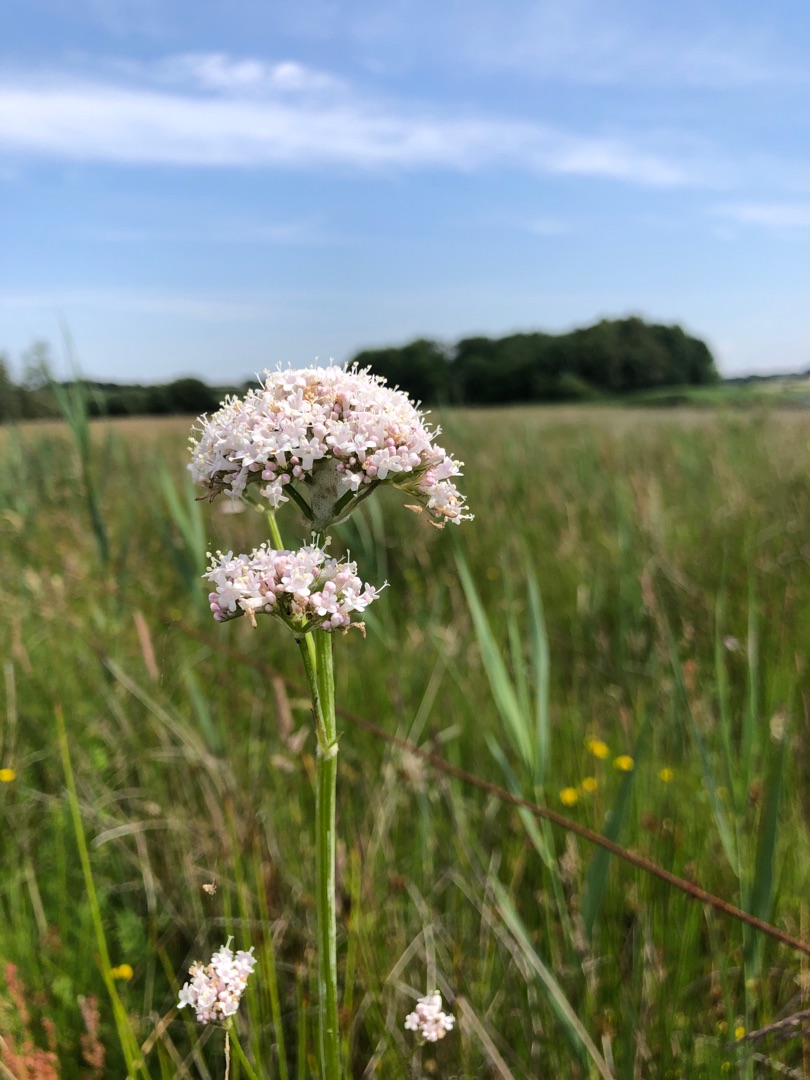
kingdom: Plantae
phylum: Tracheophyta
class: Magnoliopsida
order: Dipsacales
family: Caprifoliaceae
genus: Valeriana
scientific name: Valeriana sambucifolia
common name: Hyldebladet baldrian
